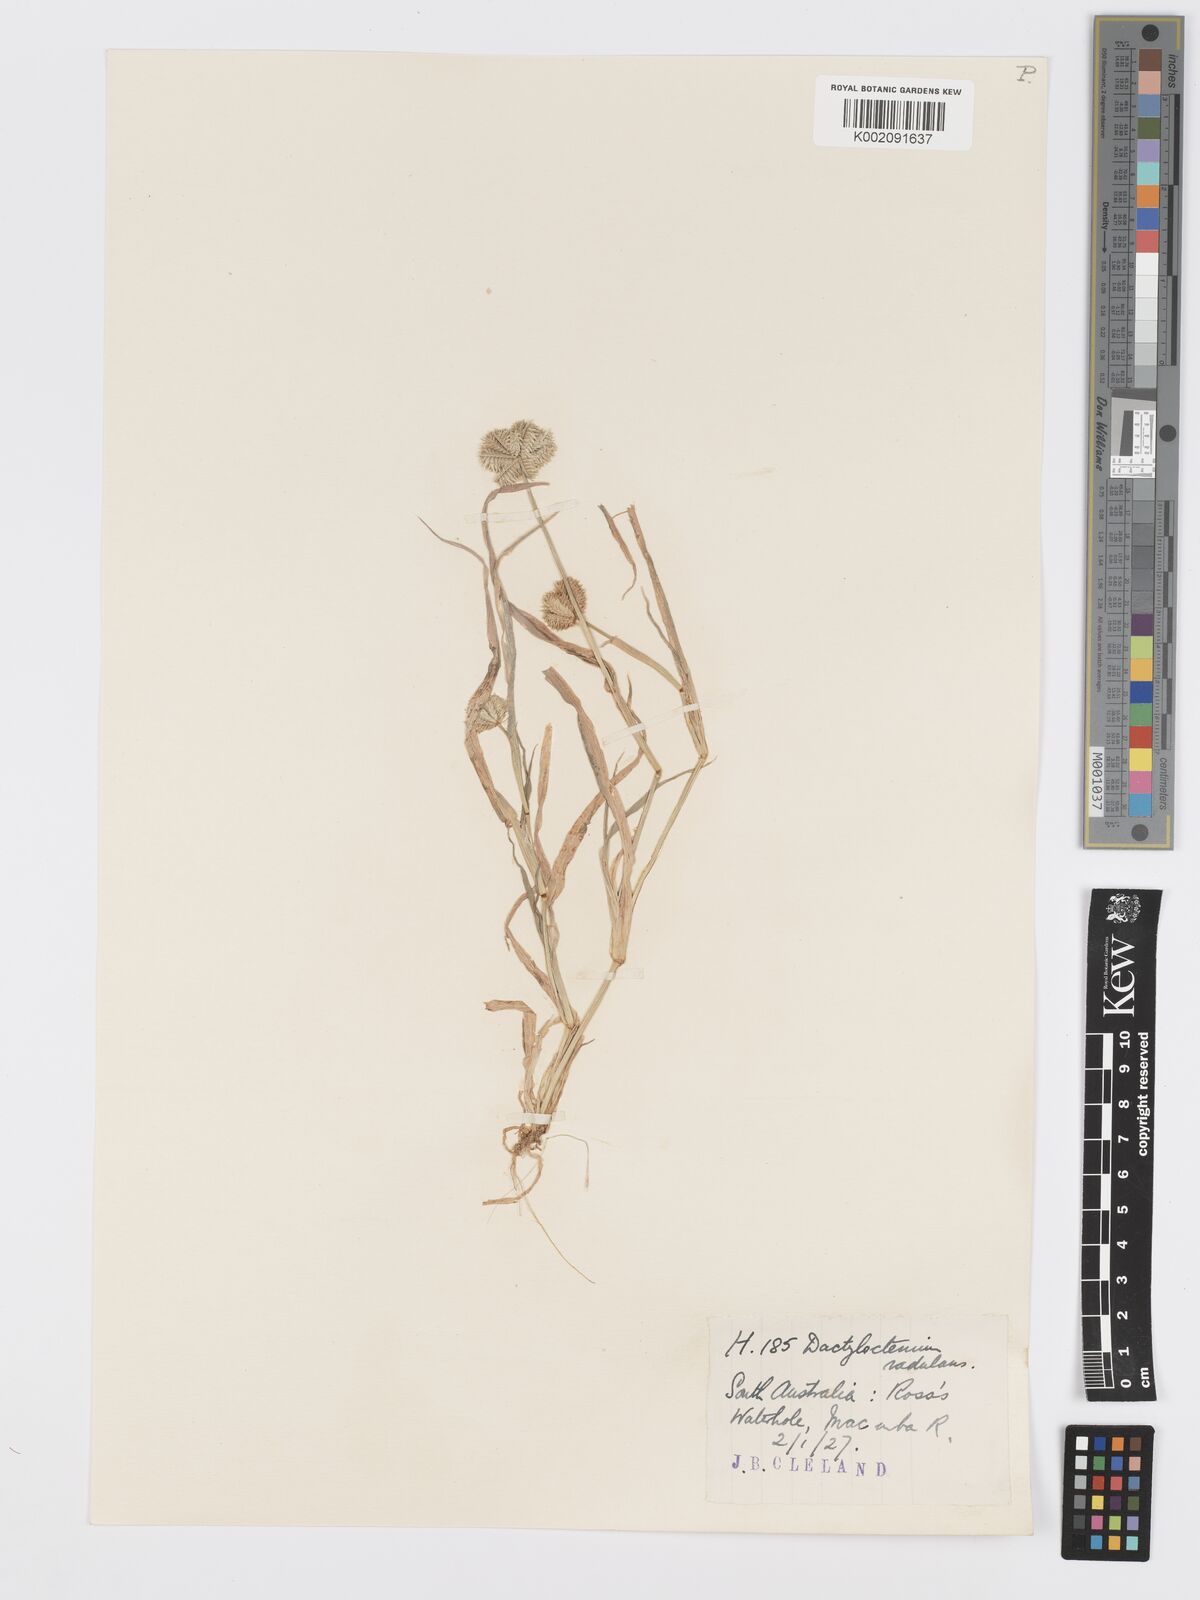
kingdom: Plantae
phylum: Tracheophyta
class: Liliopsida
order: Poales
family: Poaceae
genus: Dactyloctenium
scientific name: Dactyloctenium radulans
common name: Button-grass
